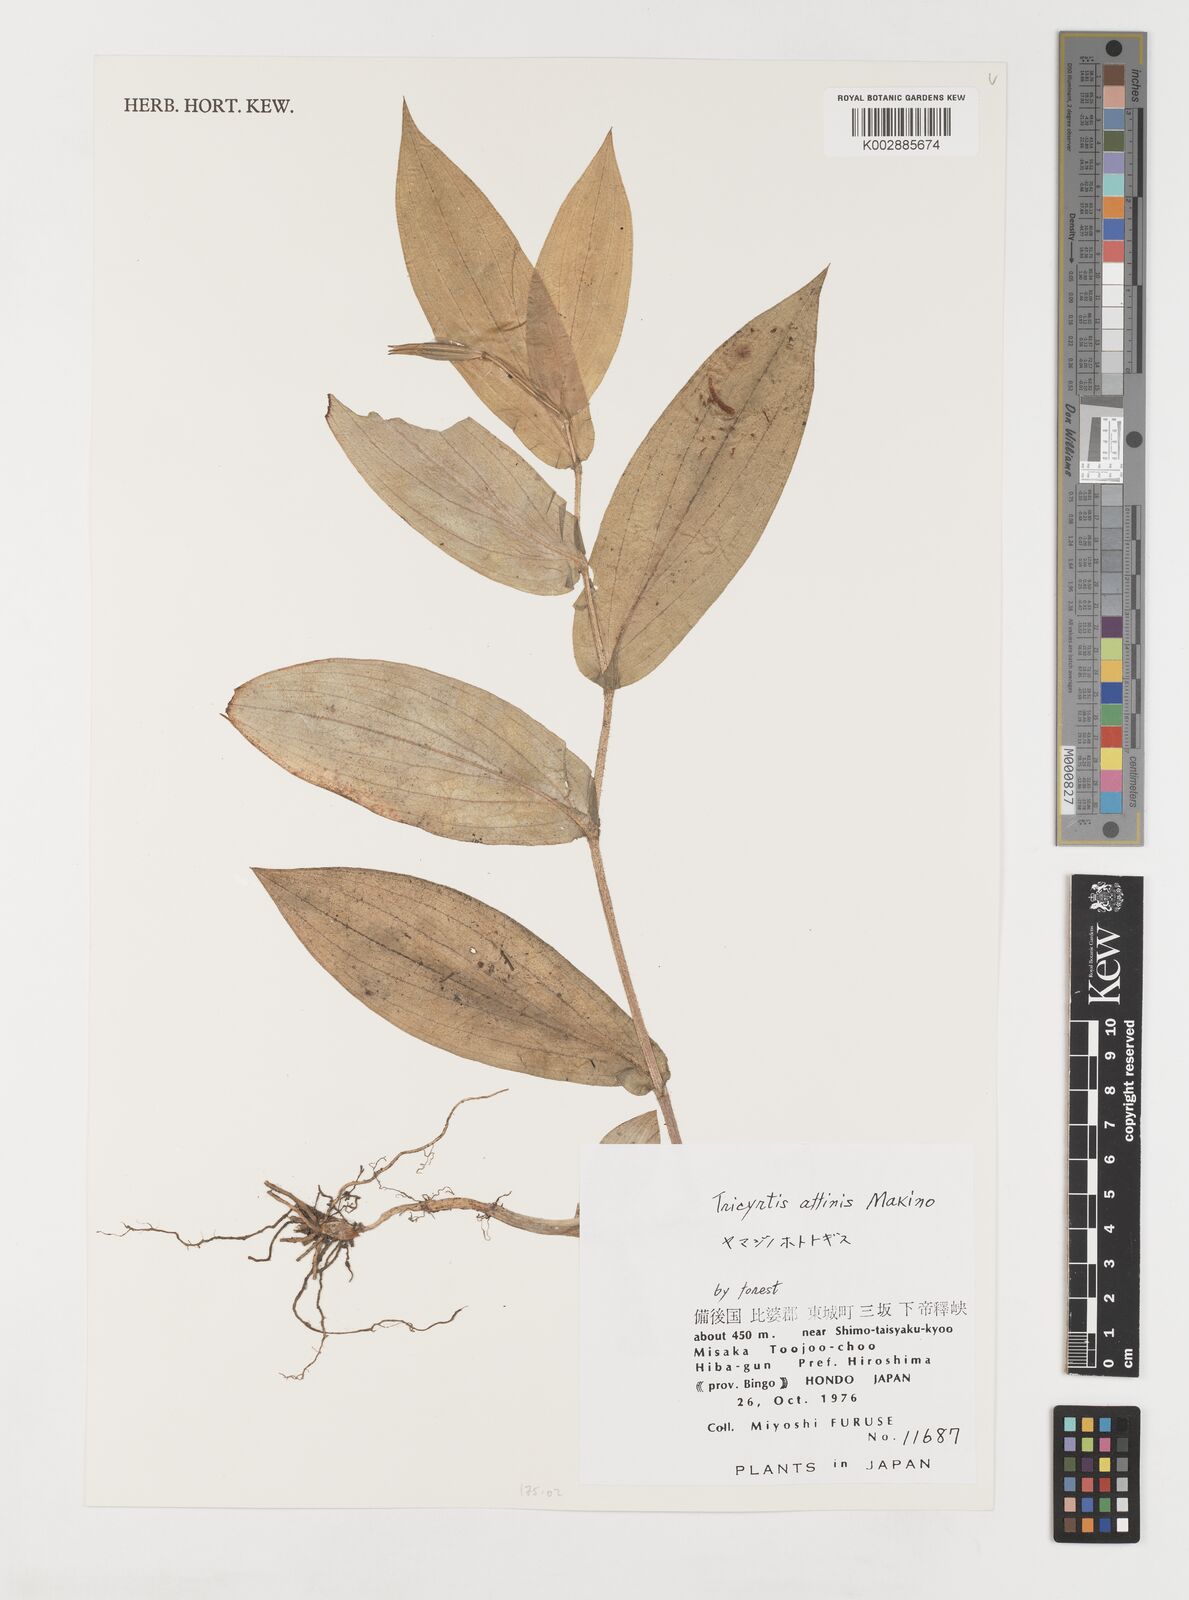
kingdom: Plantae
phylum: Tracheophyta
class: Liliopsida
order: Liliales
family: Liliaceae
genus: Tricyrtis
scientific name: Tricyrtis affinis
